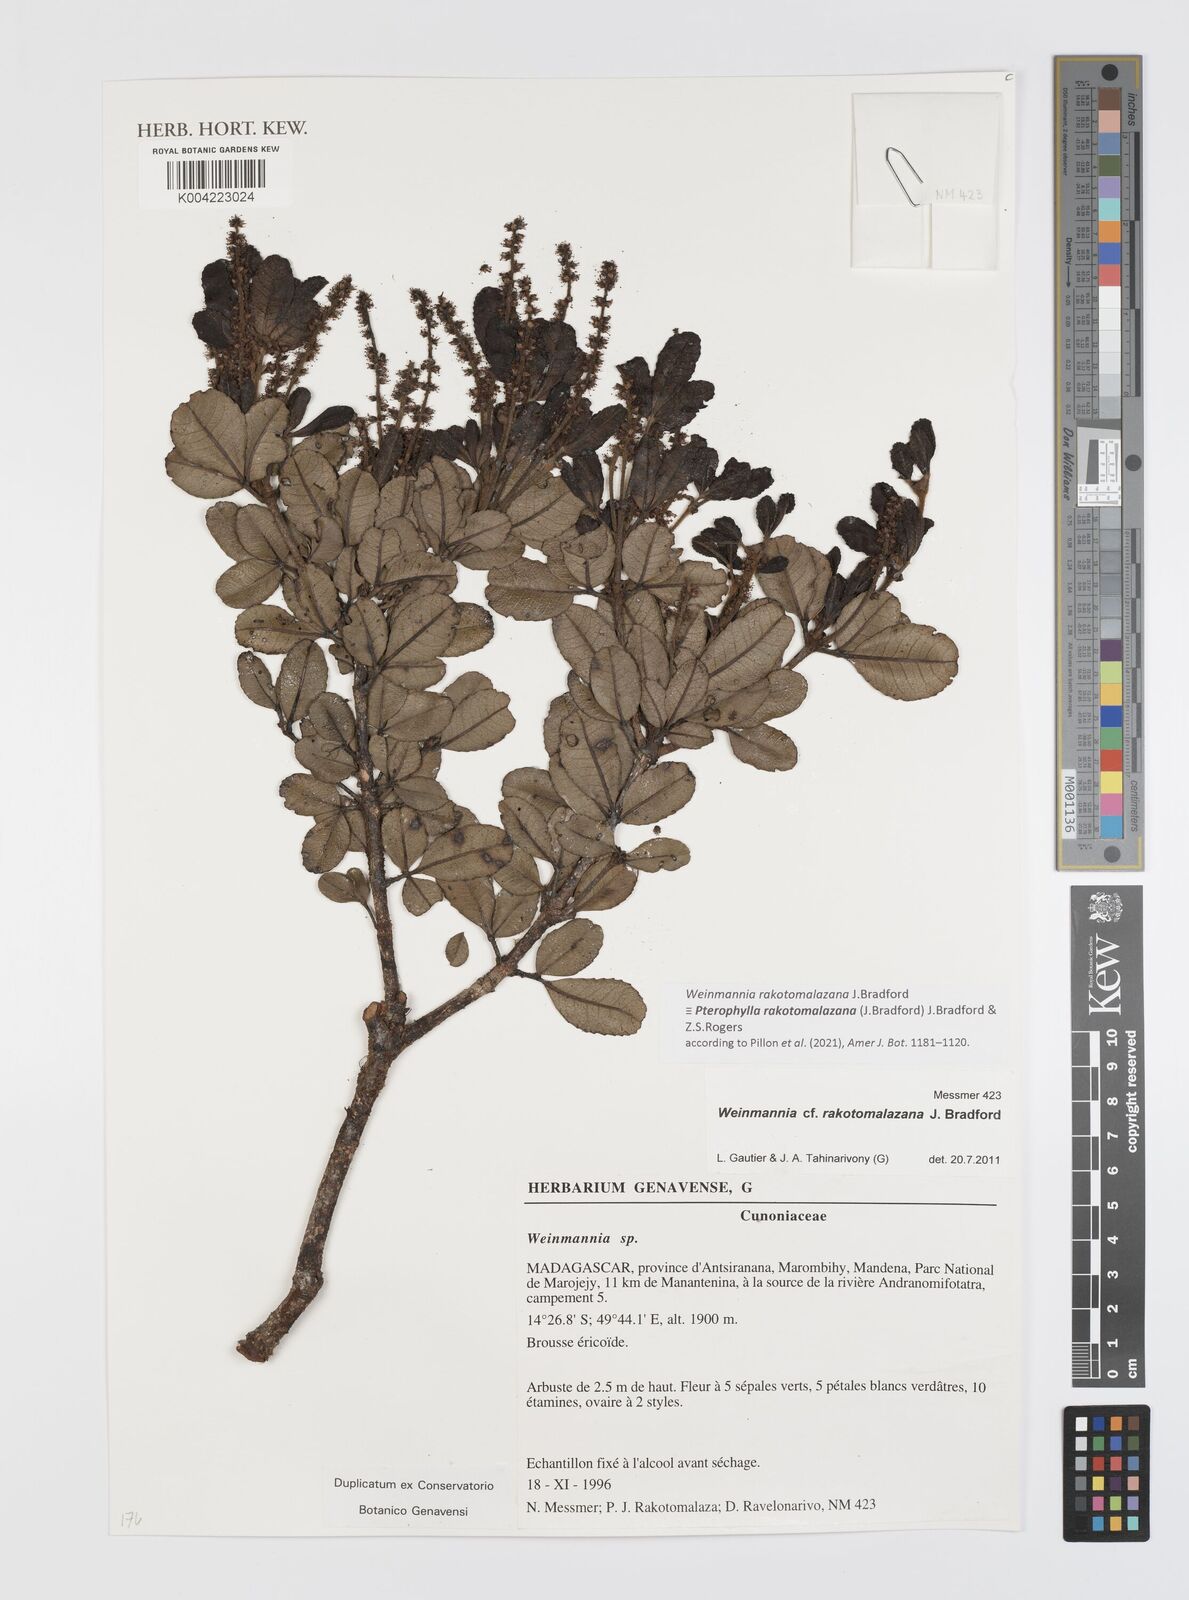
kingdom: Plantae
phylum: Tracheophyta
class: Magnoliopsida
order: Oxalidales
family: Cunoniaceae
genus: Pterophylla
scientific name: Pterophylla rakotomalazana
